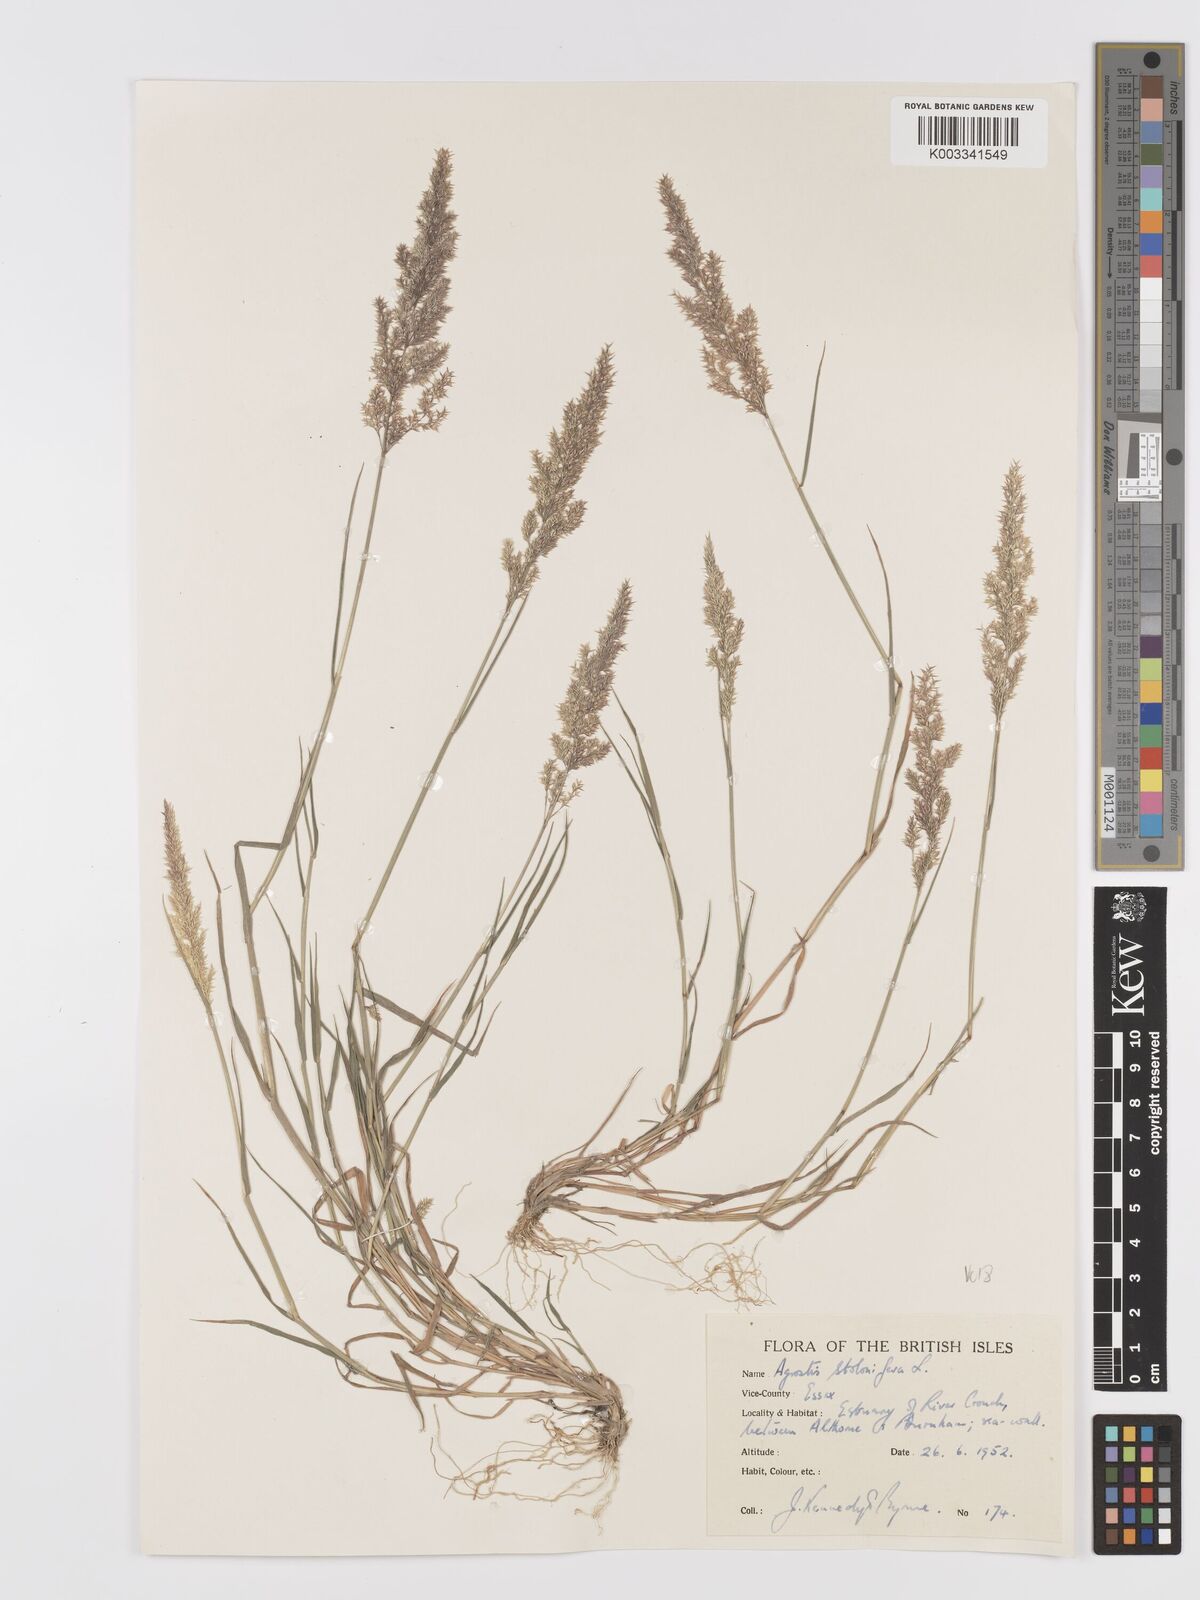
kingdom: Plantae
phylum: Tracheophyta
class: Liliopsida
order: Poales
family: Poaceae
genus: Agrostis
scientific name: Agrostis stolonifera
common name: Creeping bentgrass
